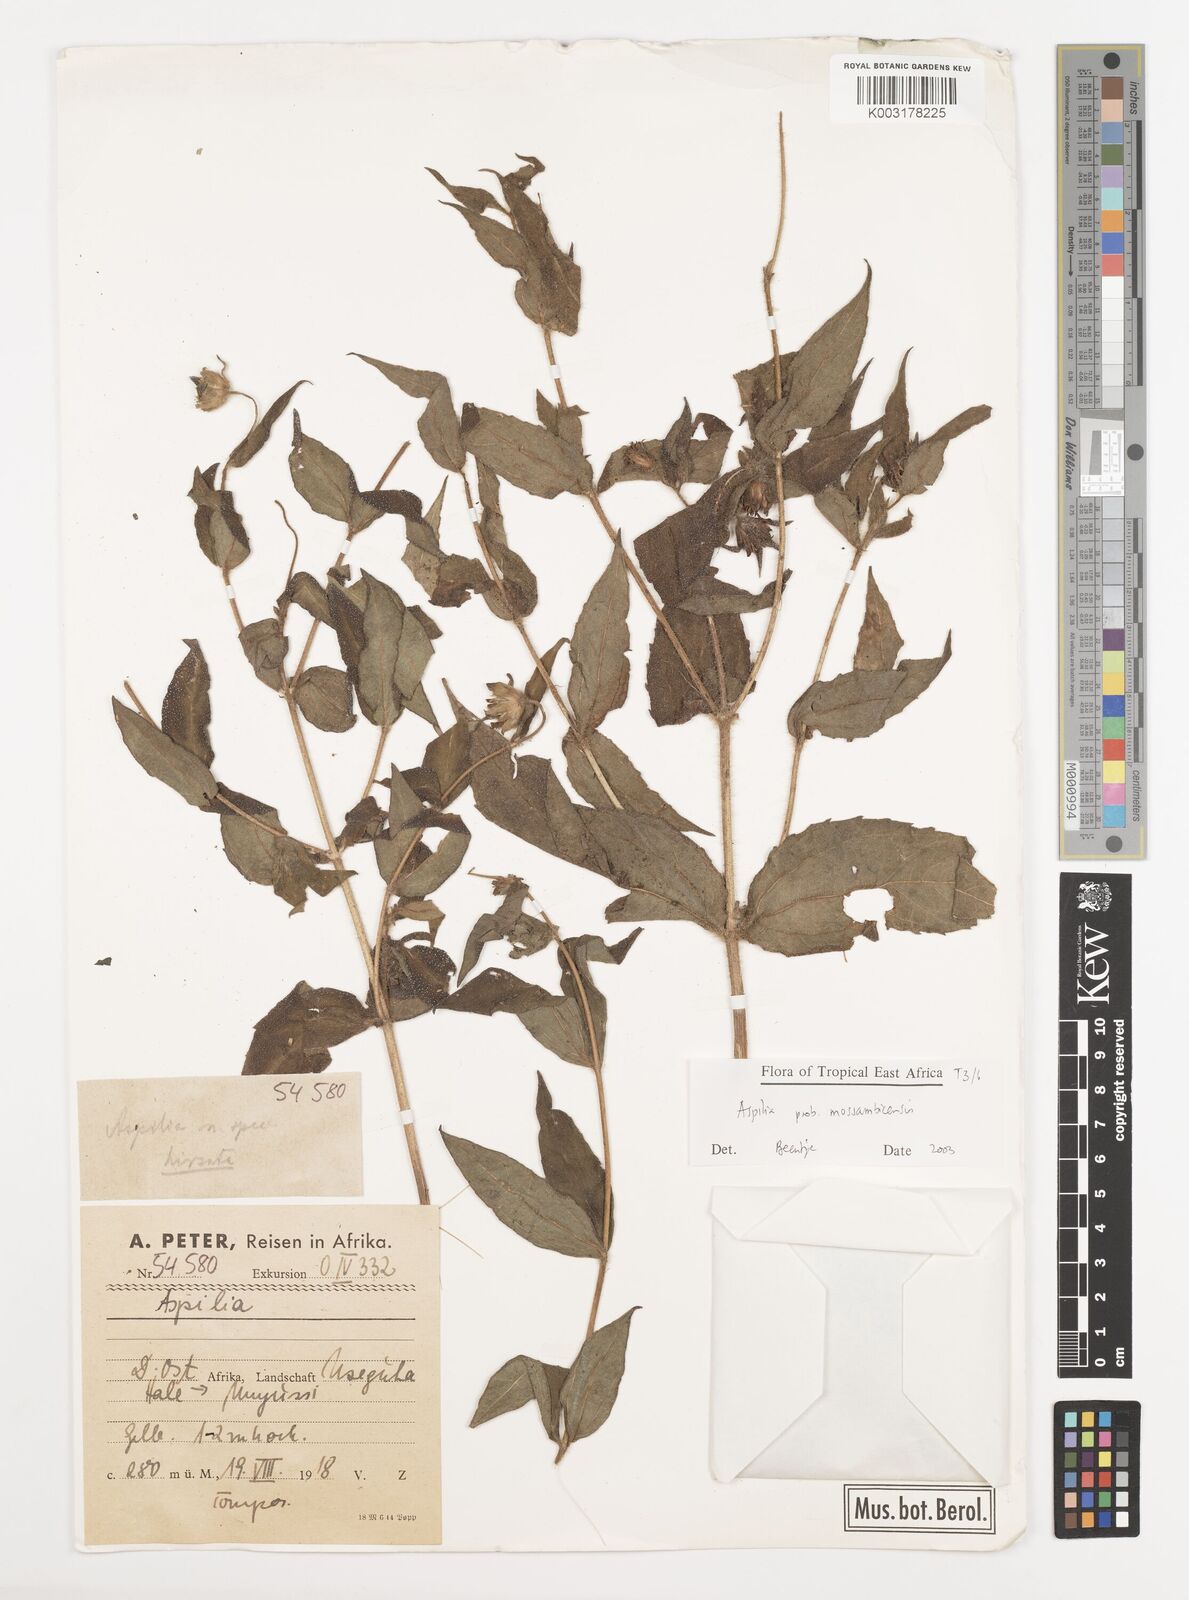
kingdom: Plantae
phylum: Tracheophyta
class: Magnoliopsida
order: Asterales
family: Asteraceae
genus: Aspilia
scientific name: Aspilia mossambicensis
